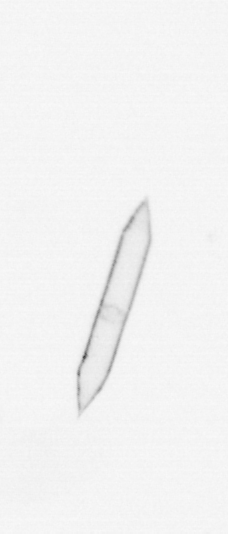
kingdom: Chromista
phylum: Ochrophyta
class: Bacillariophyceae
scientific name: Bacillariophyceae
